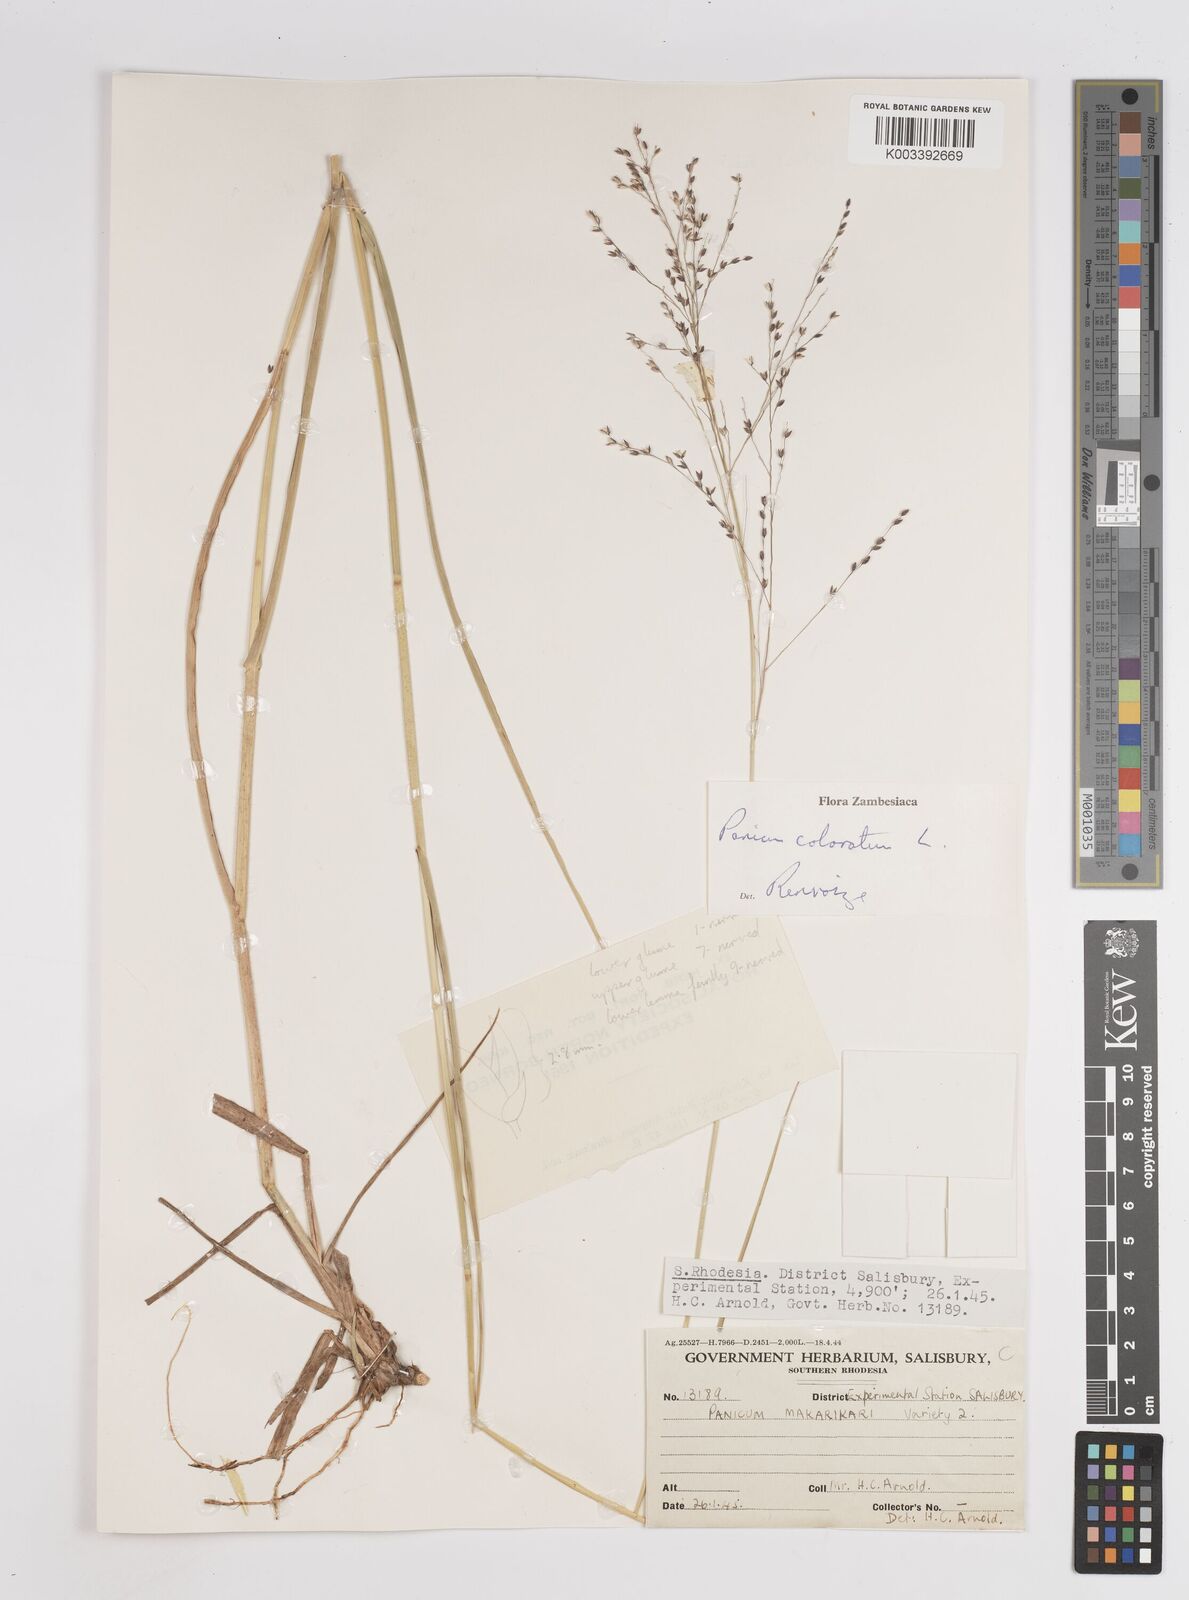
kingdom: Plantae
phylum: Tracheophyta
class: Liliopsida
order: Poales
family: Poaceae
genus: Panicum
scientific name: Panicum coloratum
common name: Kleingrass
